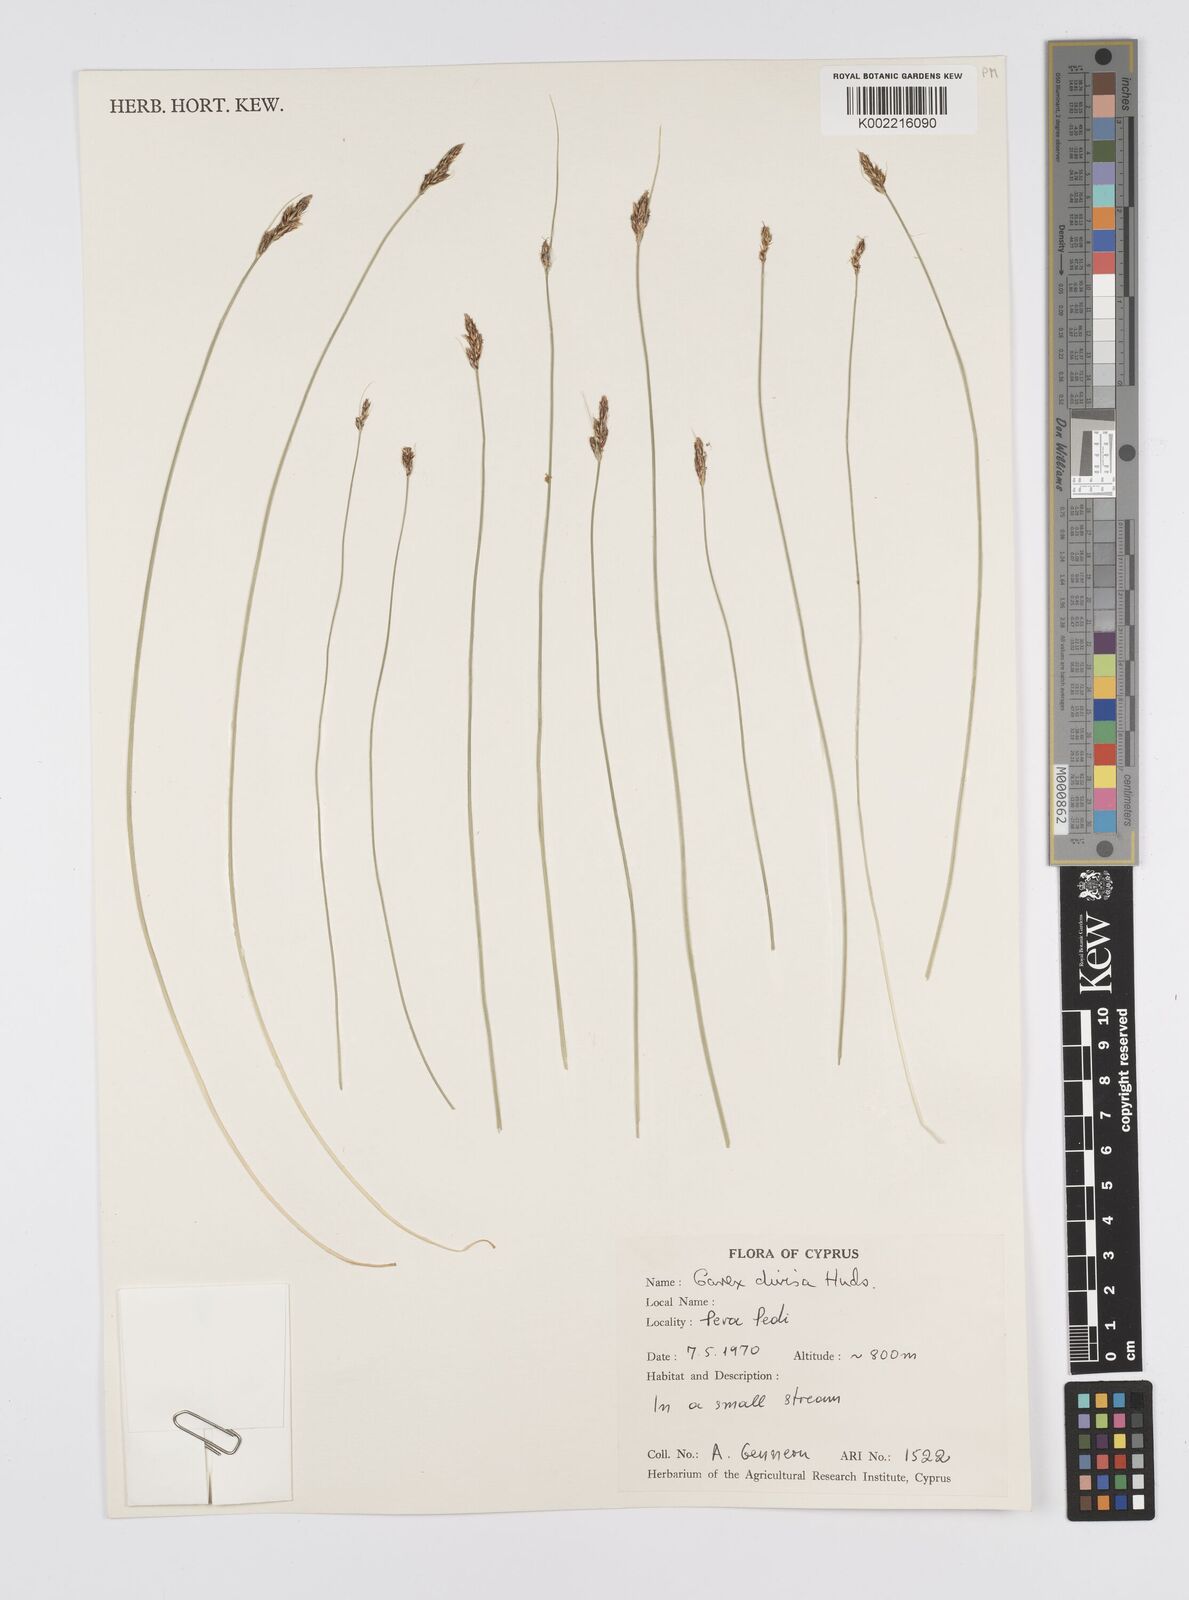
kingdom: Plantae
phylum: Tracheophyta
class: Liliopsida
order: Poales
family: Cyperaceae
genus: Carex
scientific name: Carex divisa
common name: Divided sedge
